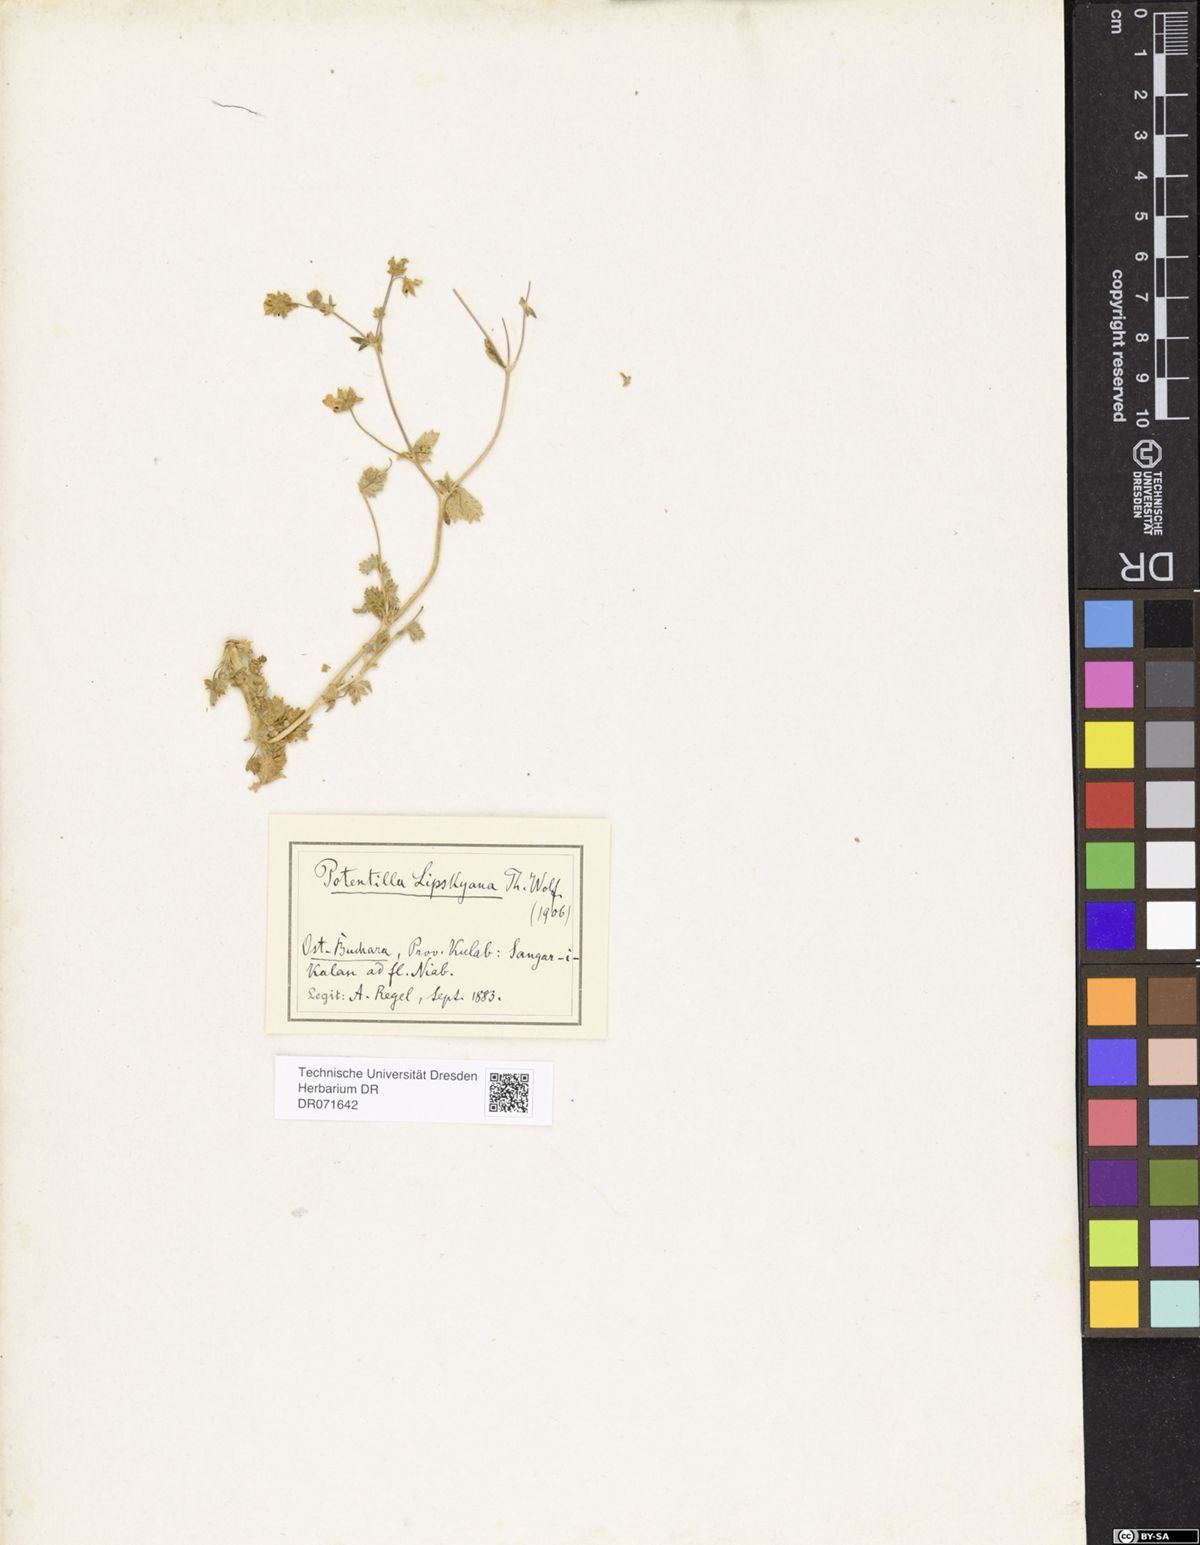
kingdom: Plantae
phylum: Tracheophyta
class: Magnoliopsida
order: Rosales
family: Rosaceae
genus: Potentilla
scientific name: Potentilla mollissima
